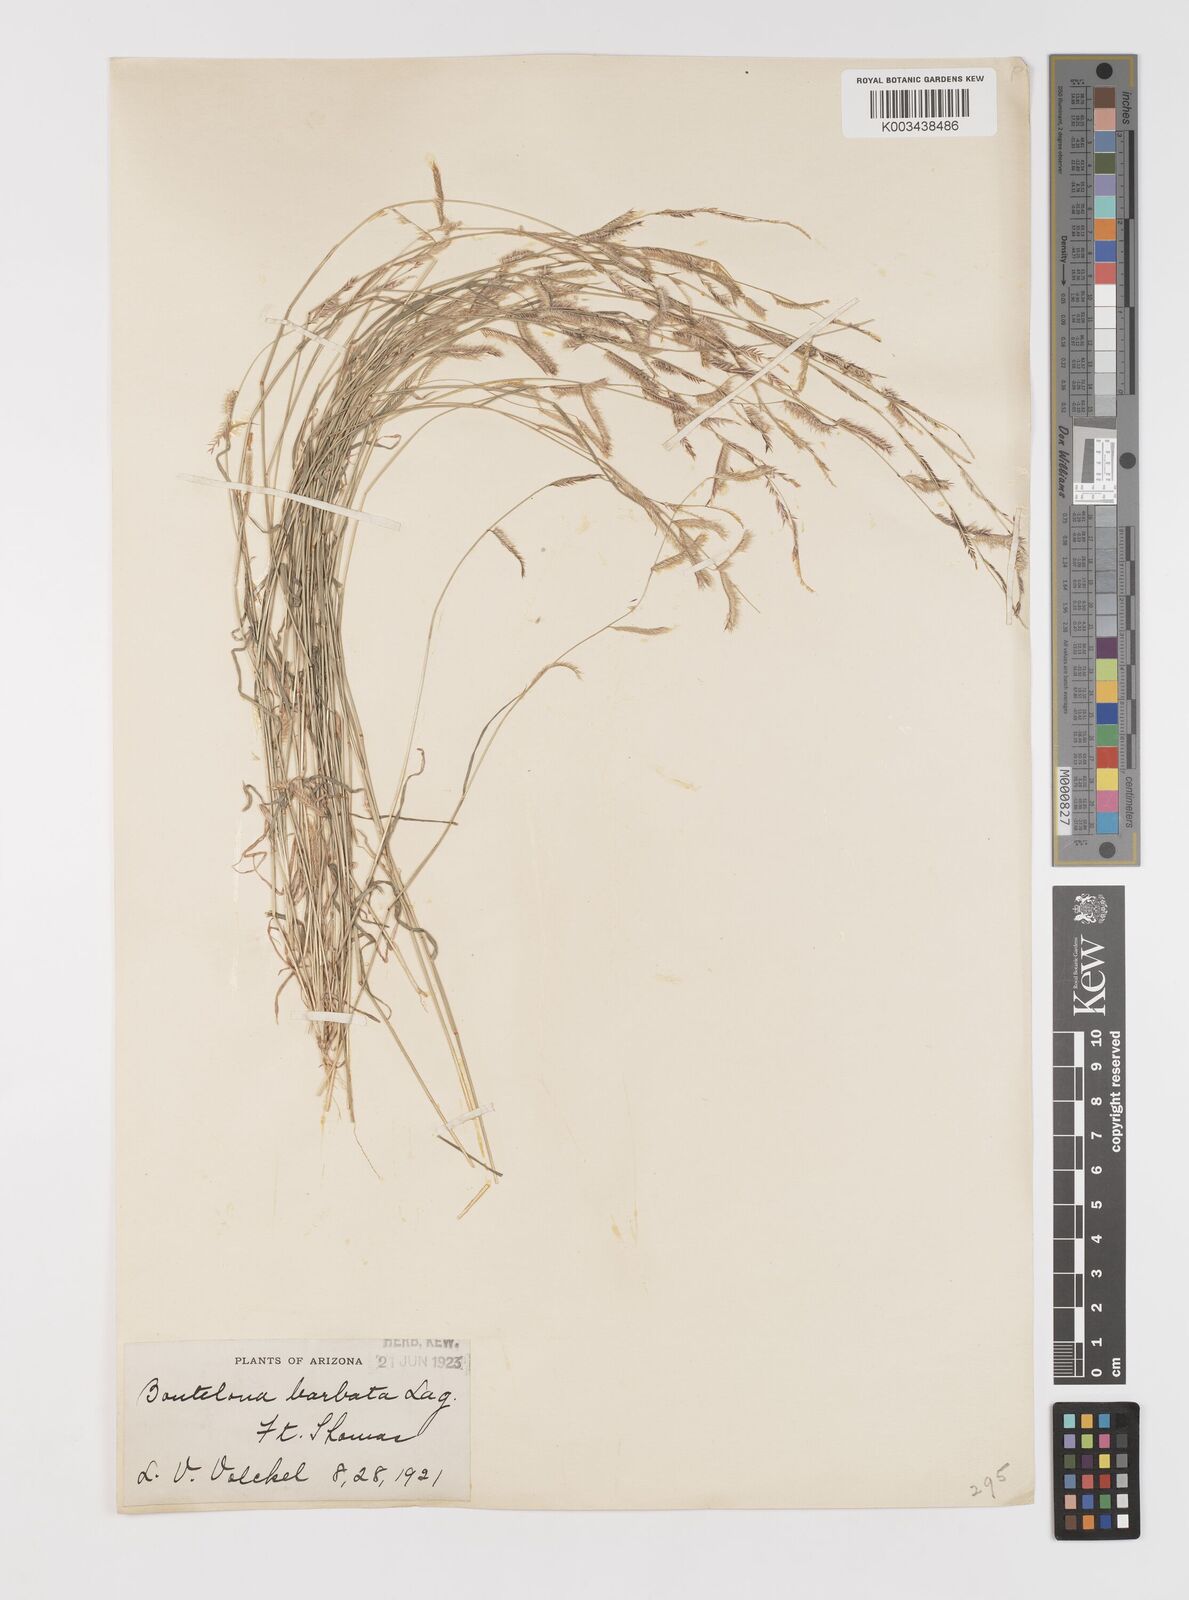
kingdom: Plantae
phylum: Tracheophyta
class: Liliopsida
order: Poales
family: Poaceae
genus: Bouteloua
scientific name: Bouteloua
